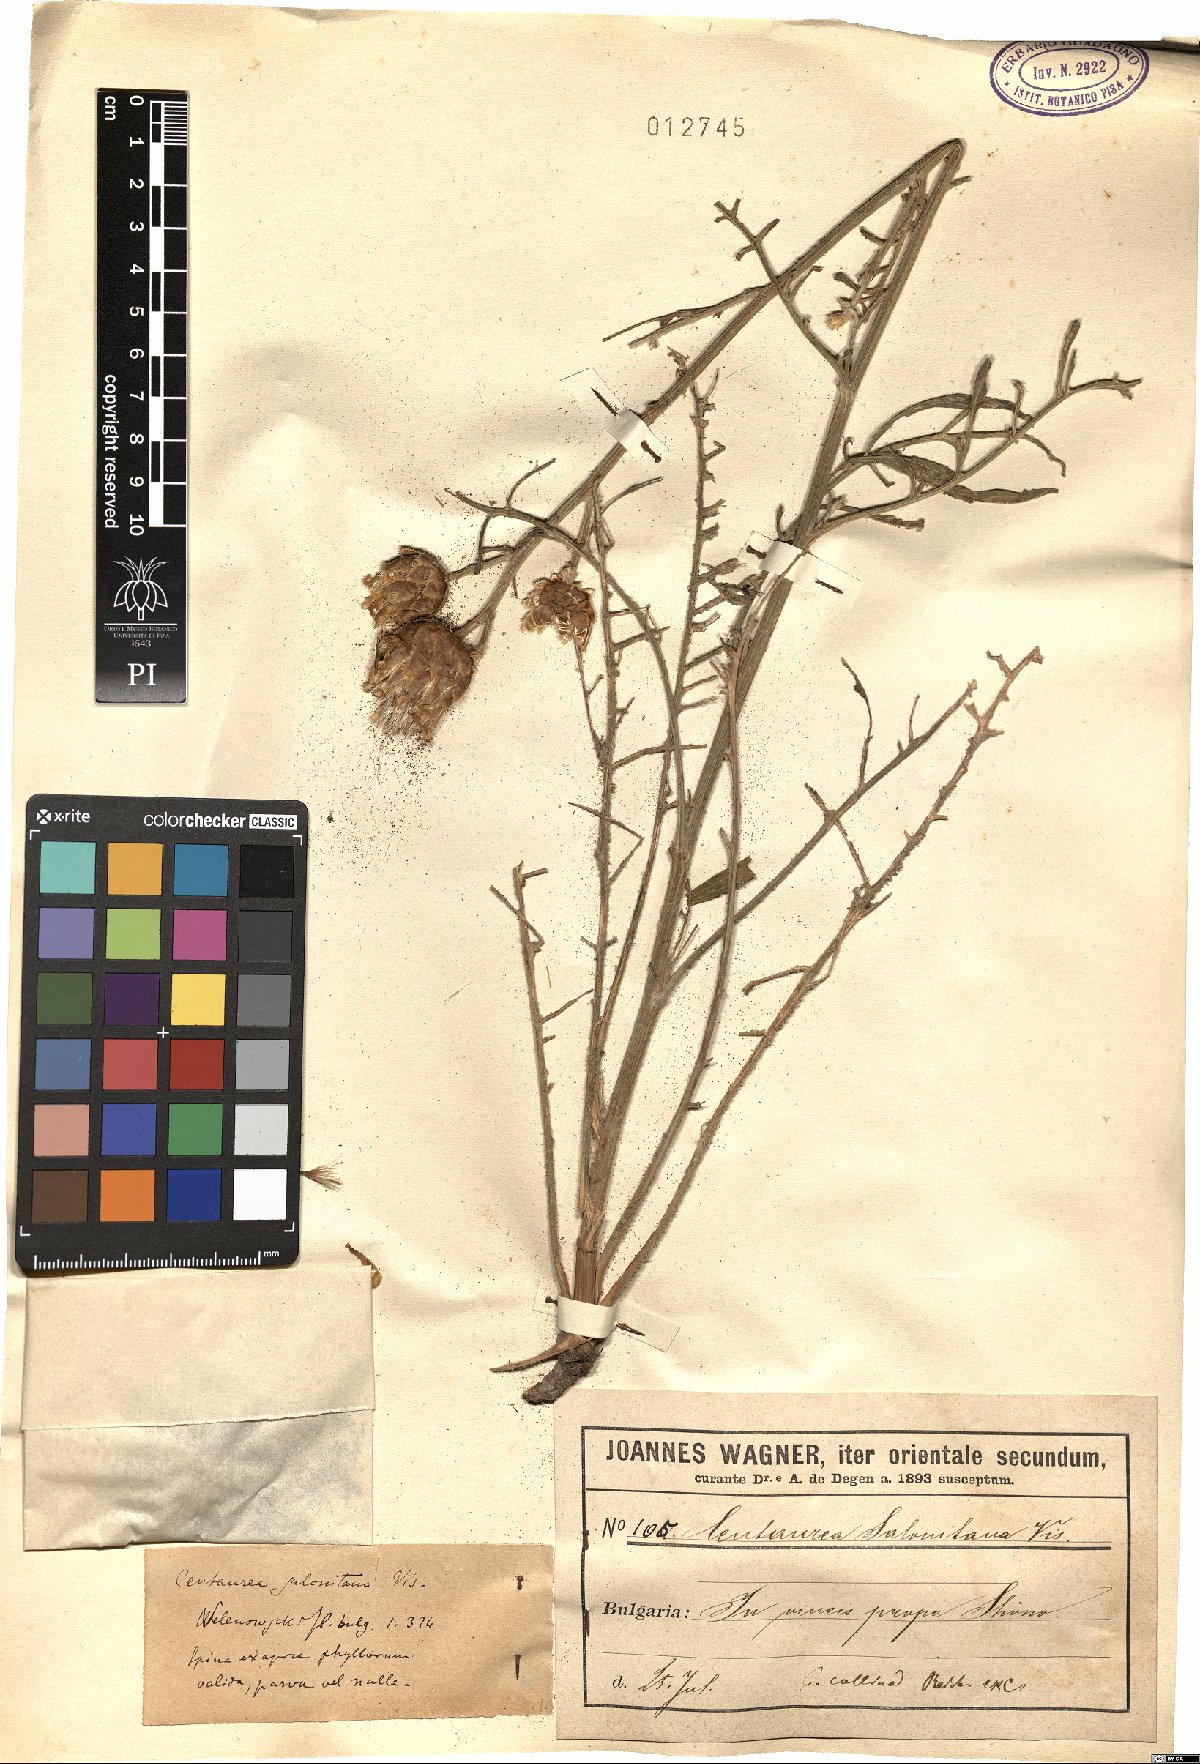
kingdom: Plantae
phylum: Tracheophyta
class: Magnoliopsida
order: Asterales
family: Asteraceae
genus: Centaurea
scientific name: Centaurea salonitana
